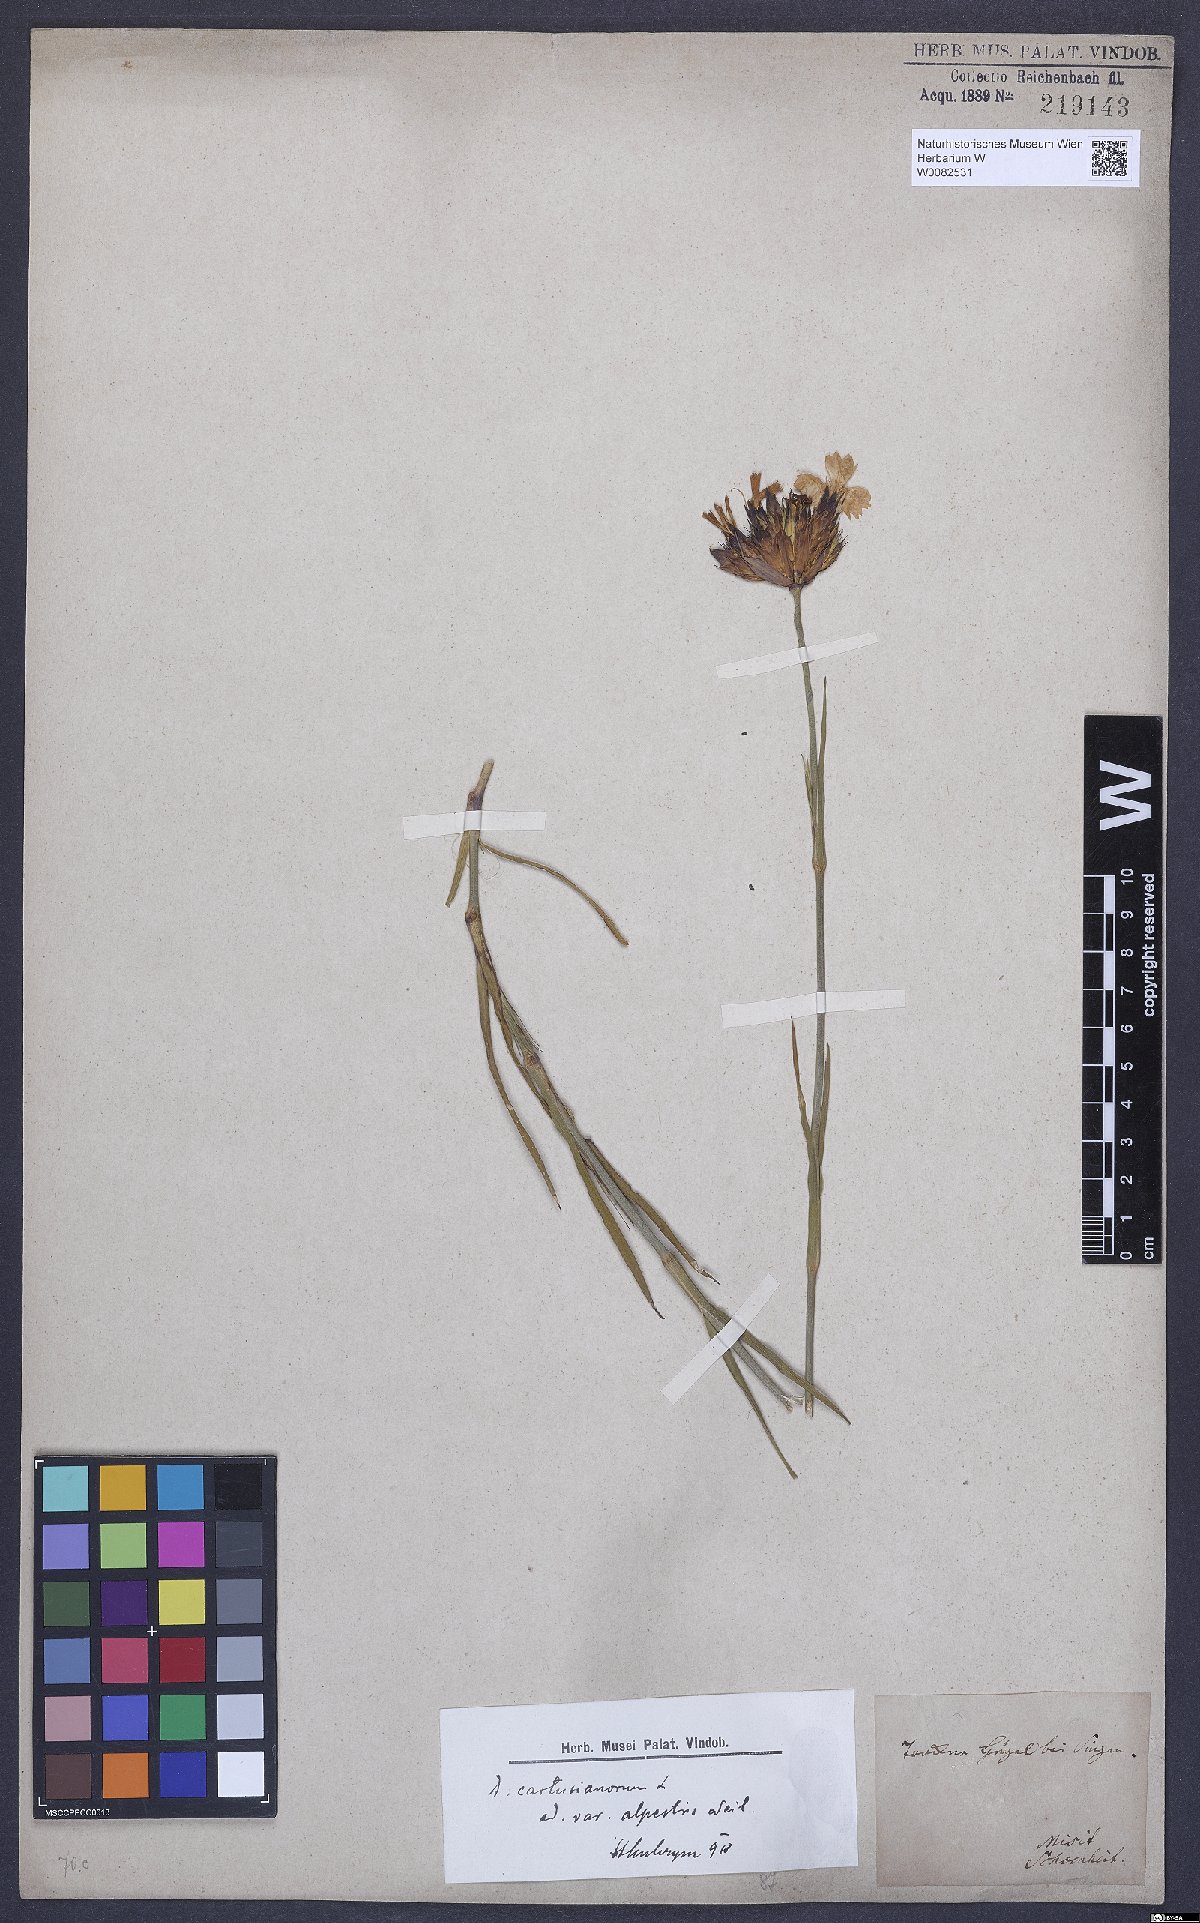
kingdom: Plantae
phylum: Tracheophyta
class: Magnoliopsida
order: Caryophyllales
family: Caryophyllaceae
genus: Dianthus
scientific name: Dianthus carthusianorum
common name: Carthusian pink
